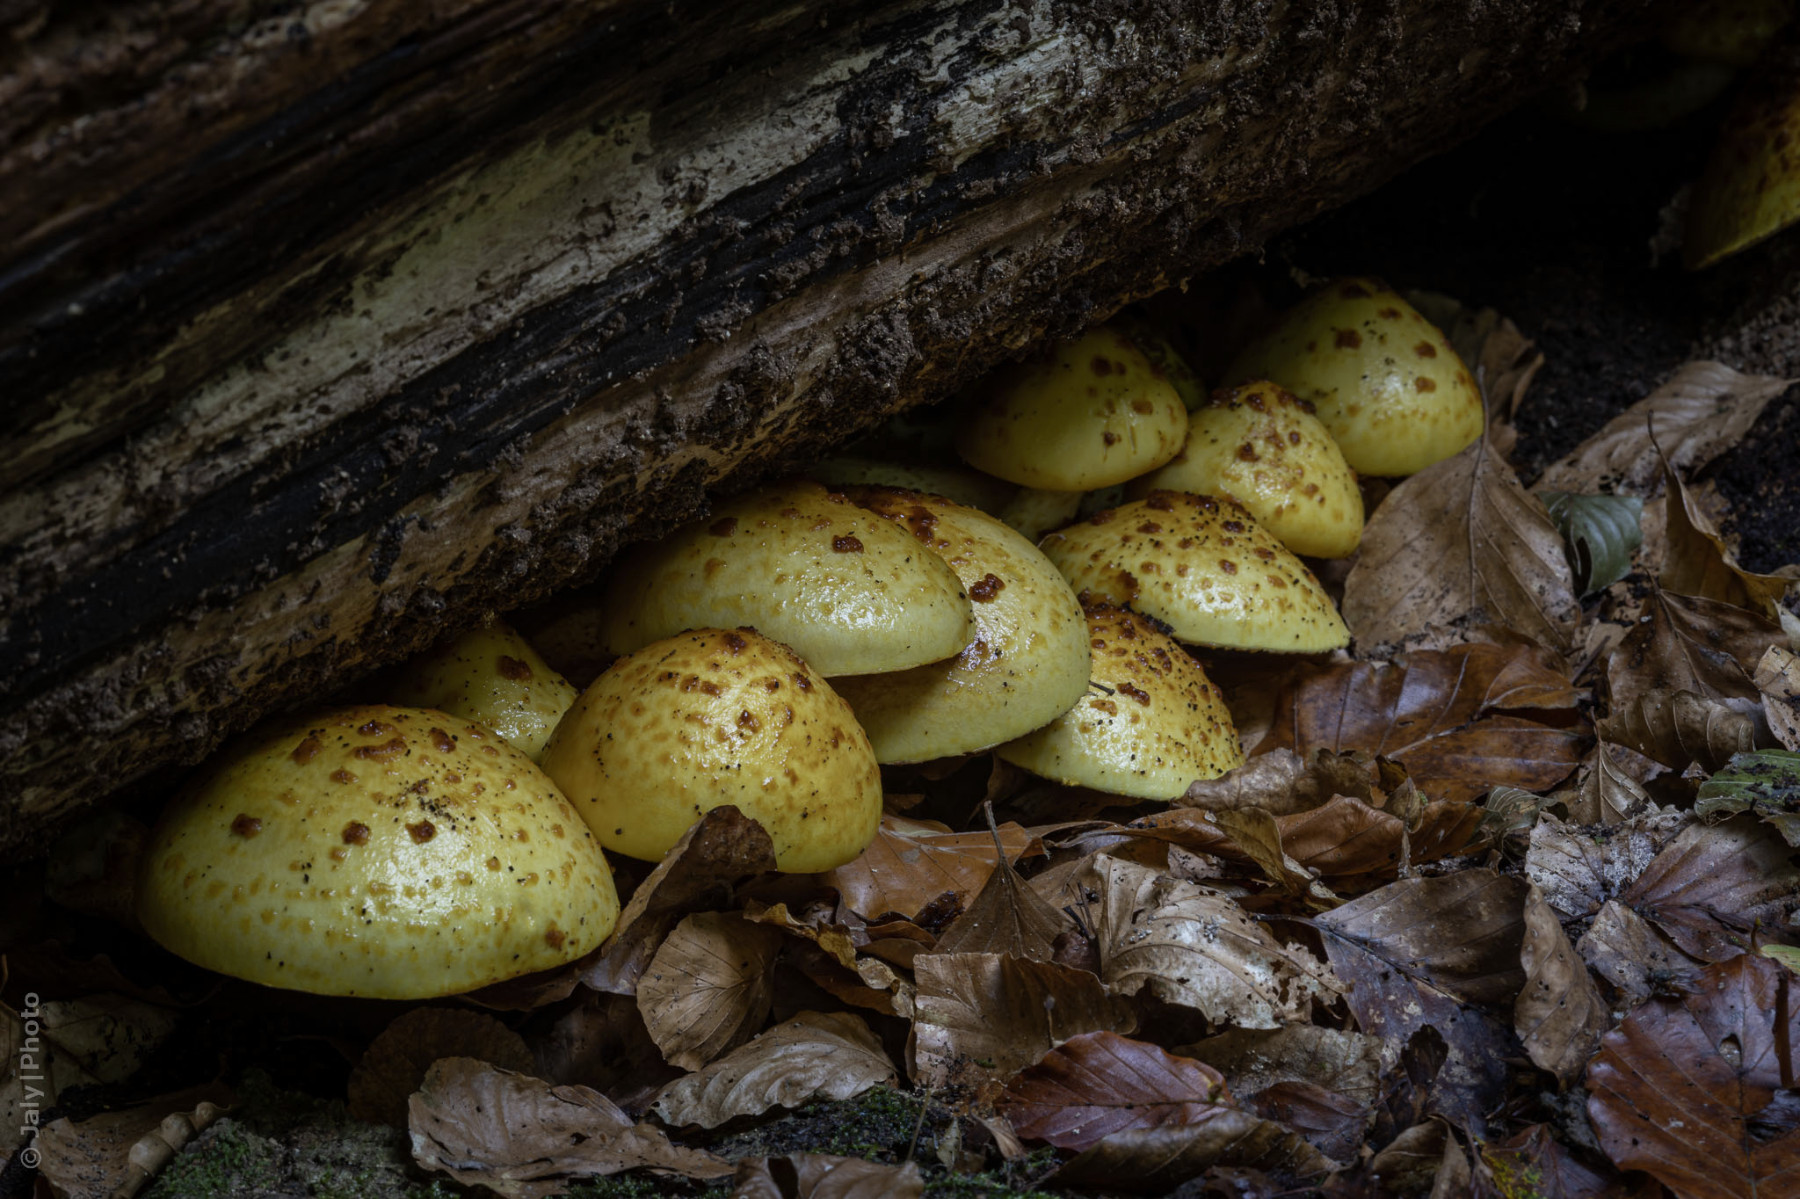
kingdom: Fungi
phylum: Basidiomycota
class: Agaricomycetes
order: Agaricales
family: Strophariaceae
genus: Pholiota
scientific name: Pholiota adiposa
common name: højtsiddende skælhat
